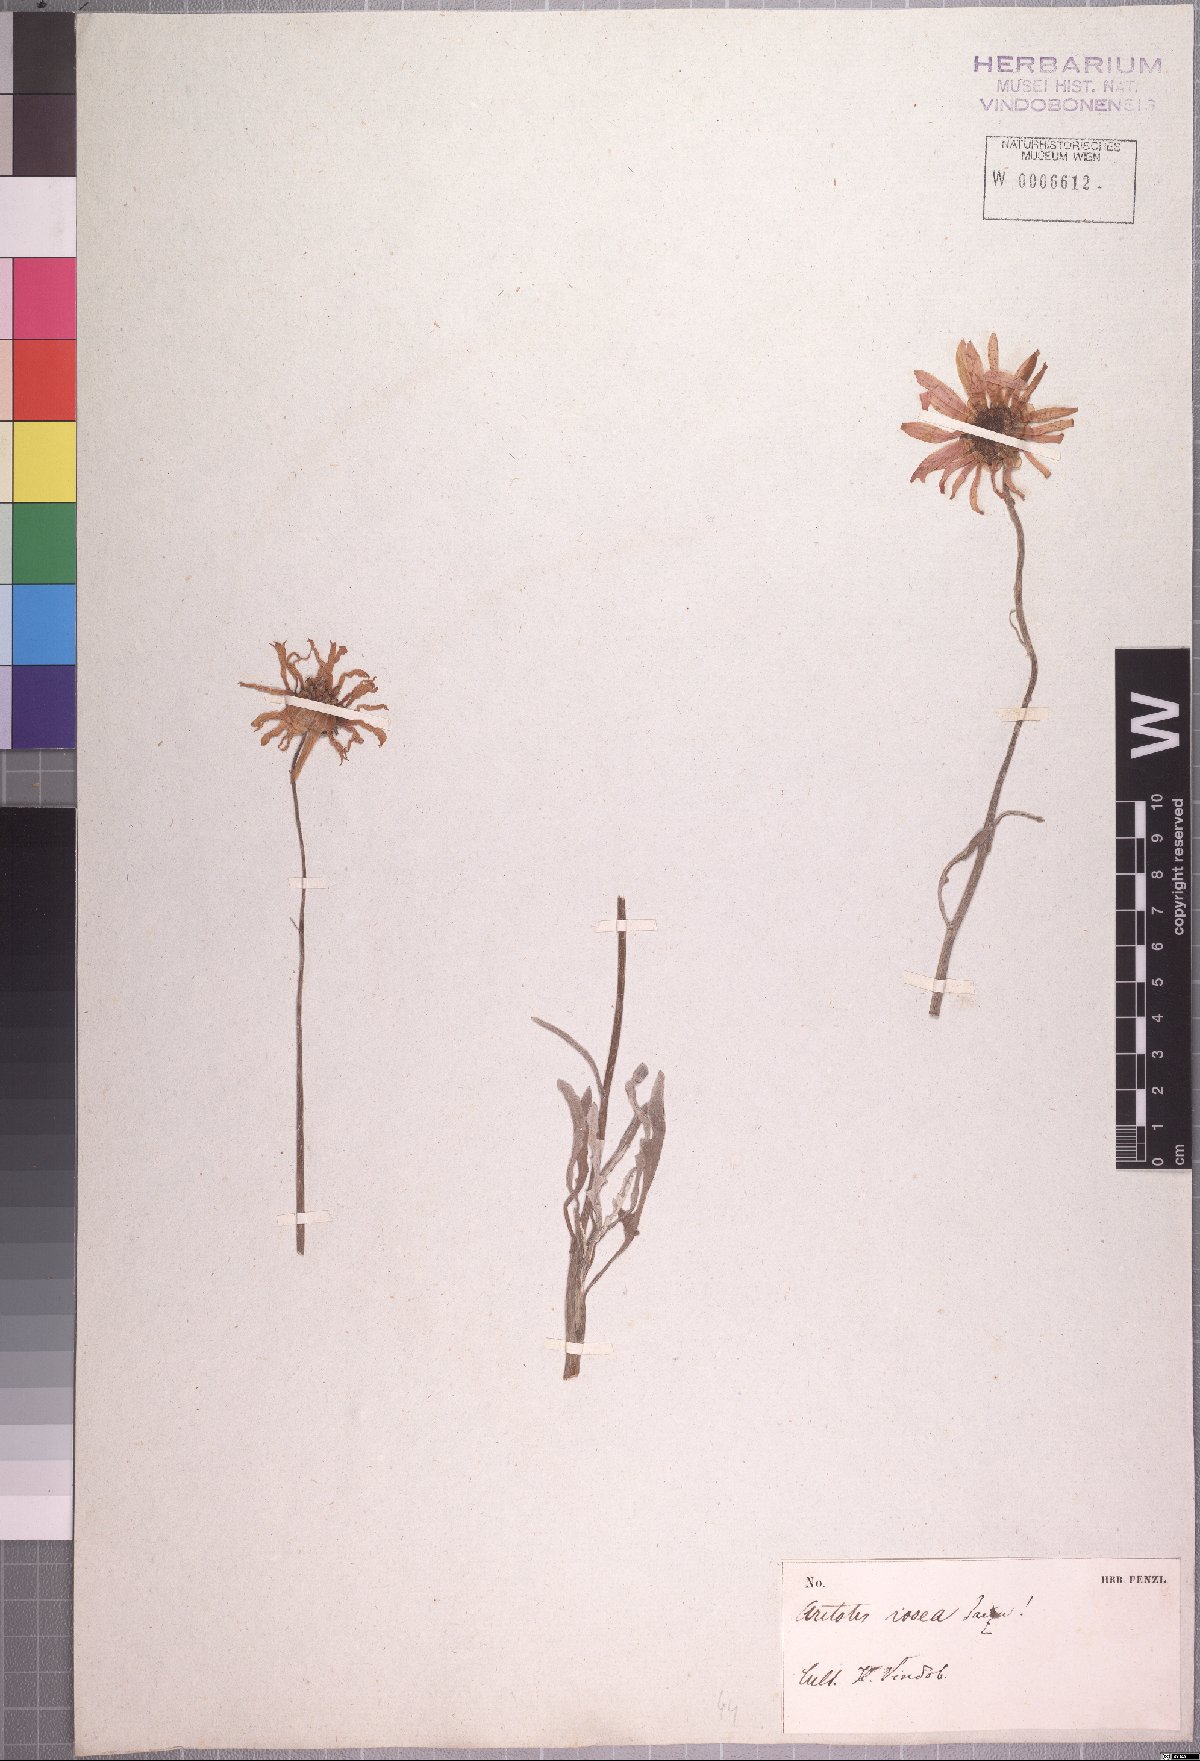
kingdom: Plantae
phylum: Tracheophyta
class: Magnoliopsida
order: Asterales
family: Asteraceae
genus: Arctotis
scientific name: Arctotis rosea
